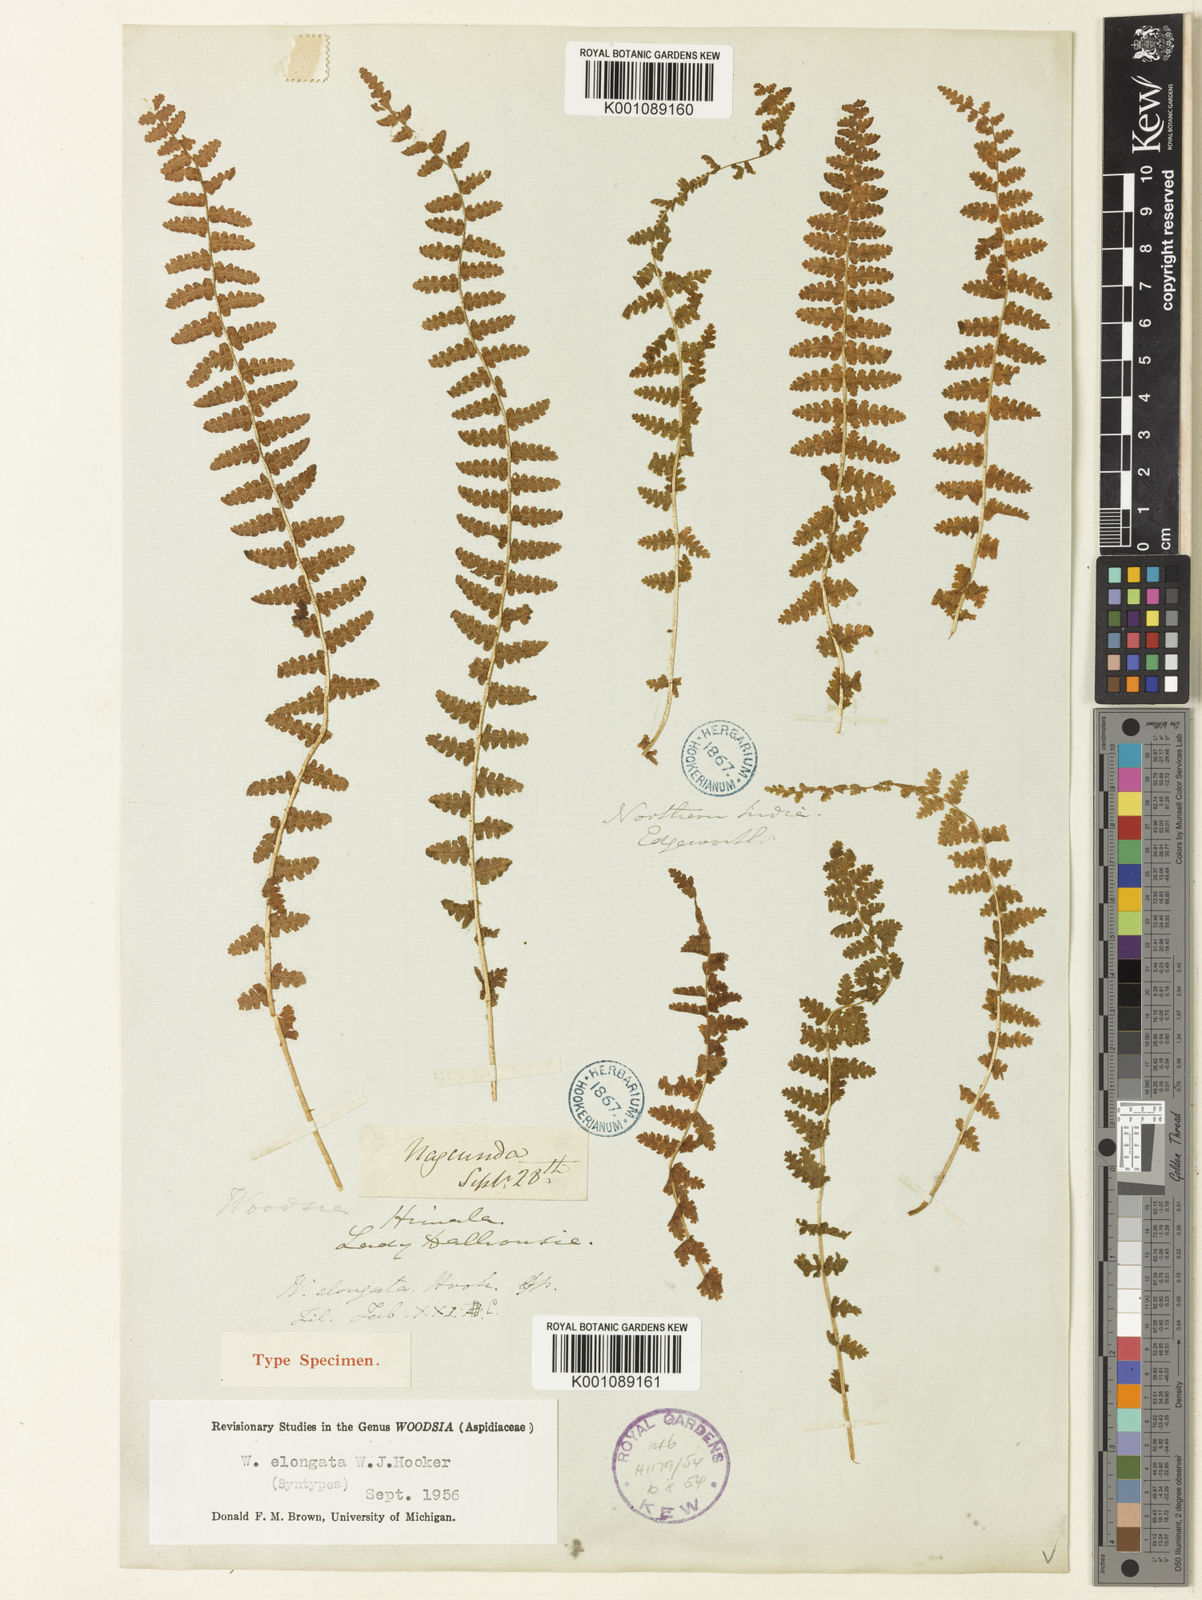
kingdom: Plantae
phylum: Tracheophyta
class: Polypodiopsida
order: Polypodiales
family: Woodsiaceae
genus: Physematium
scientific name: Physematium elongatum
